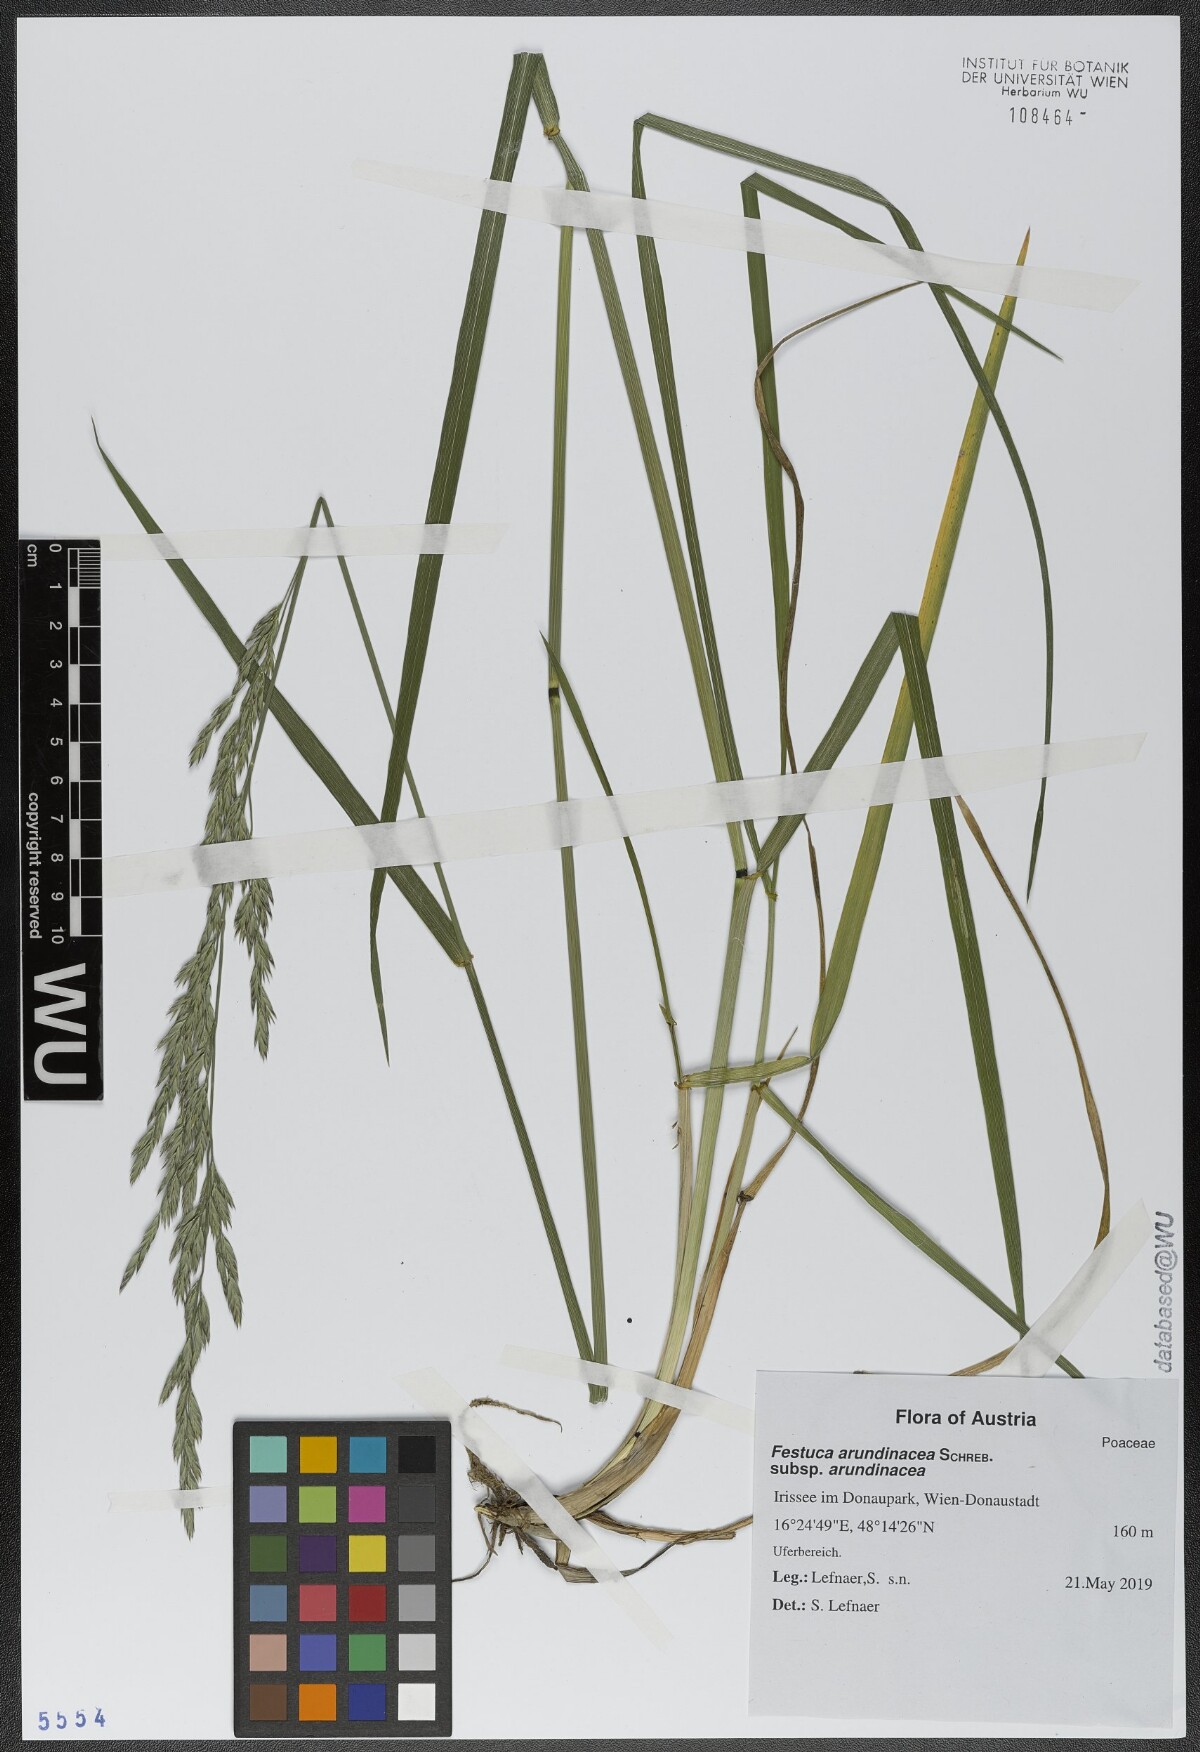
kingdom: Plantae
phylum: Tracheophyta
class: Liliopsida
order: Poales
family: Poaceae
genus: Lolium
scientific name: Lolium arundinaceum
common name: Reed fescue
